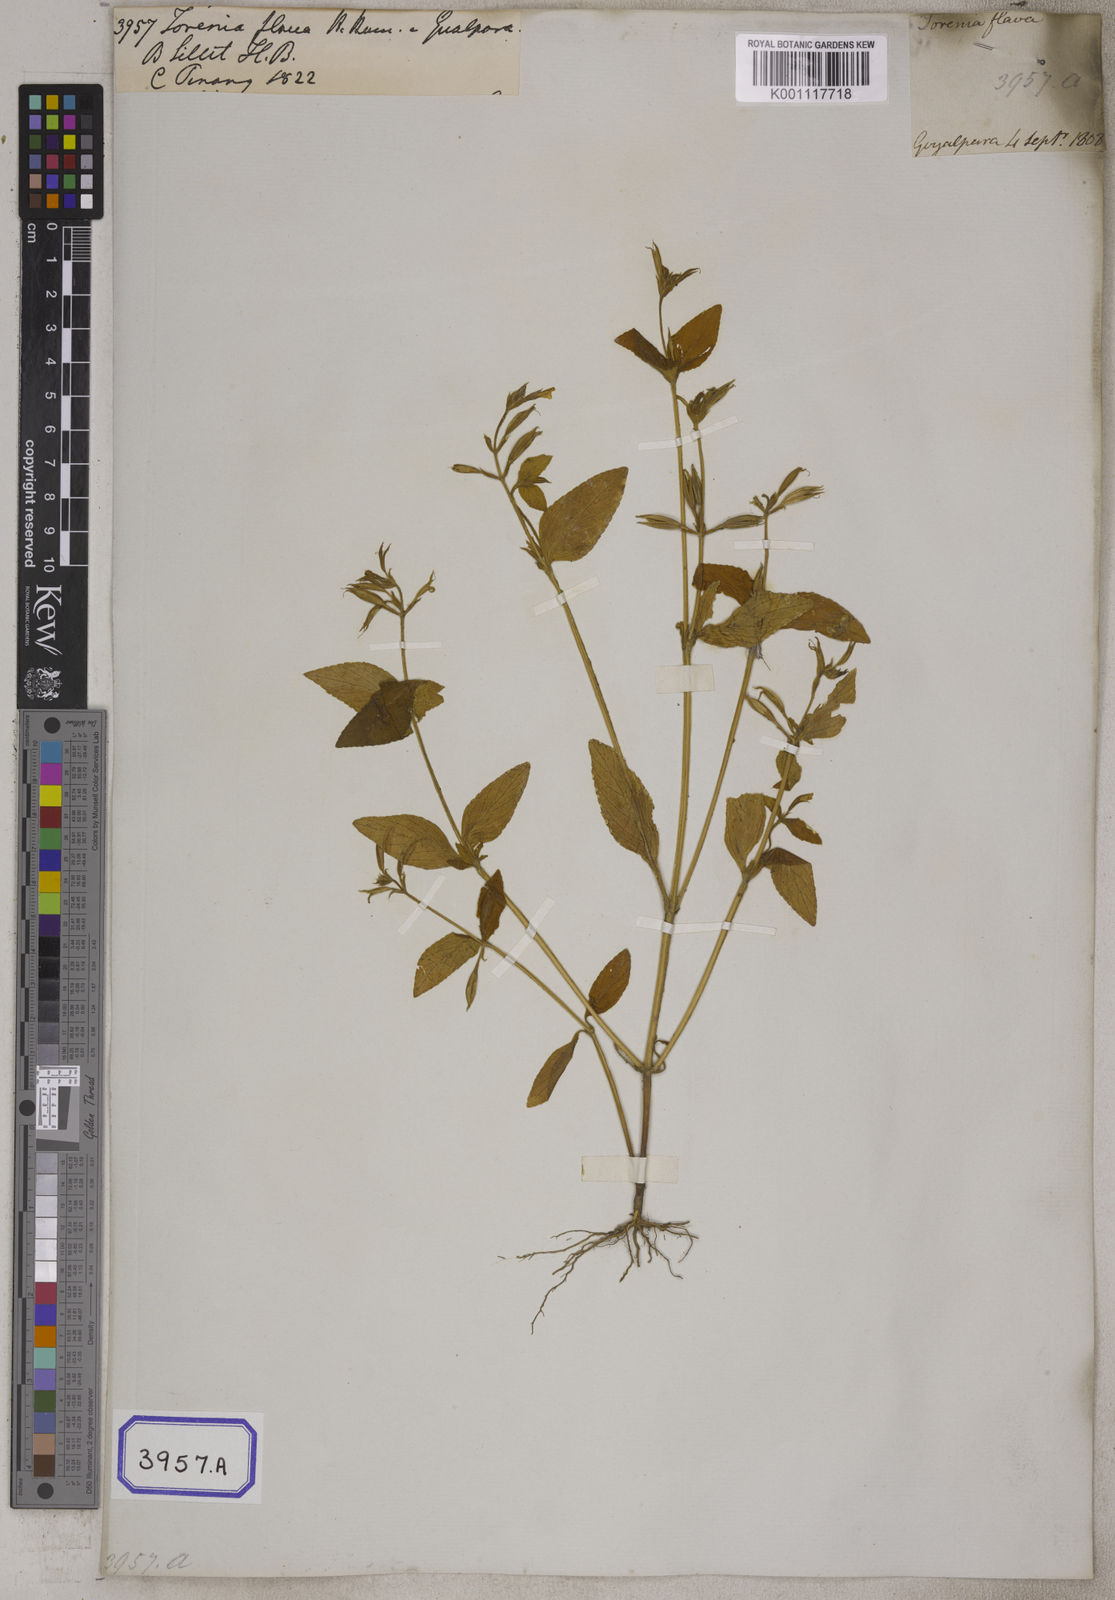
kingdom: Plantae
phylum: Tracheophyta
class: Magnoliopsida
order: Lamiales
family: Linderniaceae
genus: Torenia
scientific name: Torenia
